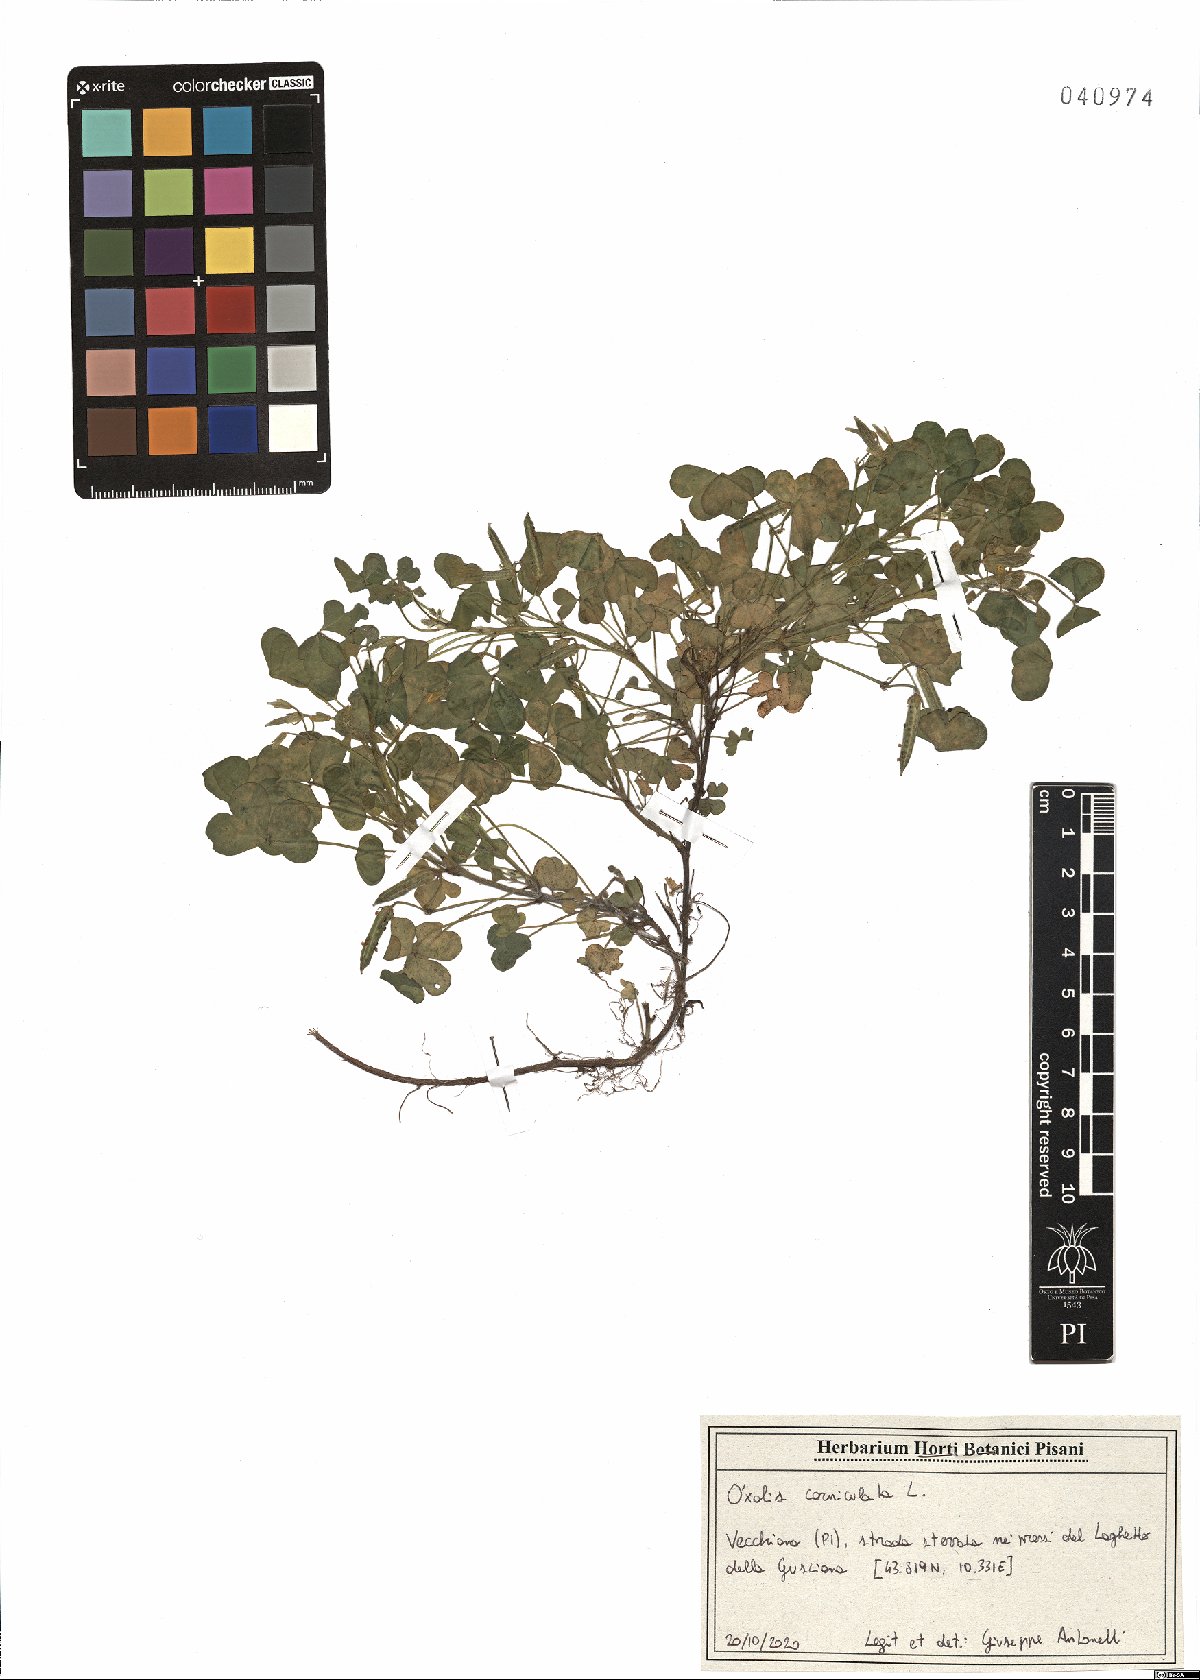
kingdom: Plantae
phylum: Tracheophyta
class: Magnoliopsida
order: Oxalidales
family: Oxalidaceae
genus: Oxalis
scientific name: Oxalis corniculata
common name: Procumbent yellow-sorrel
